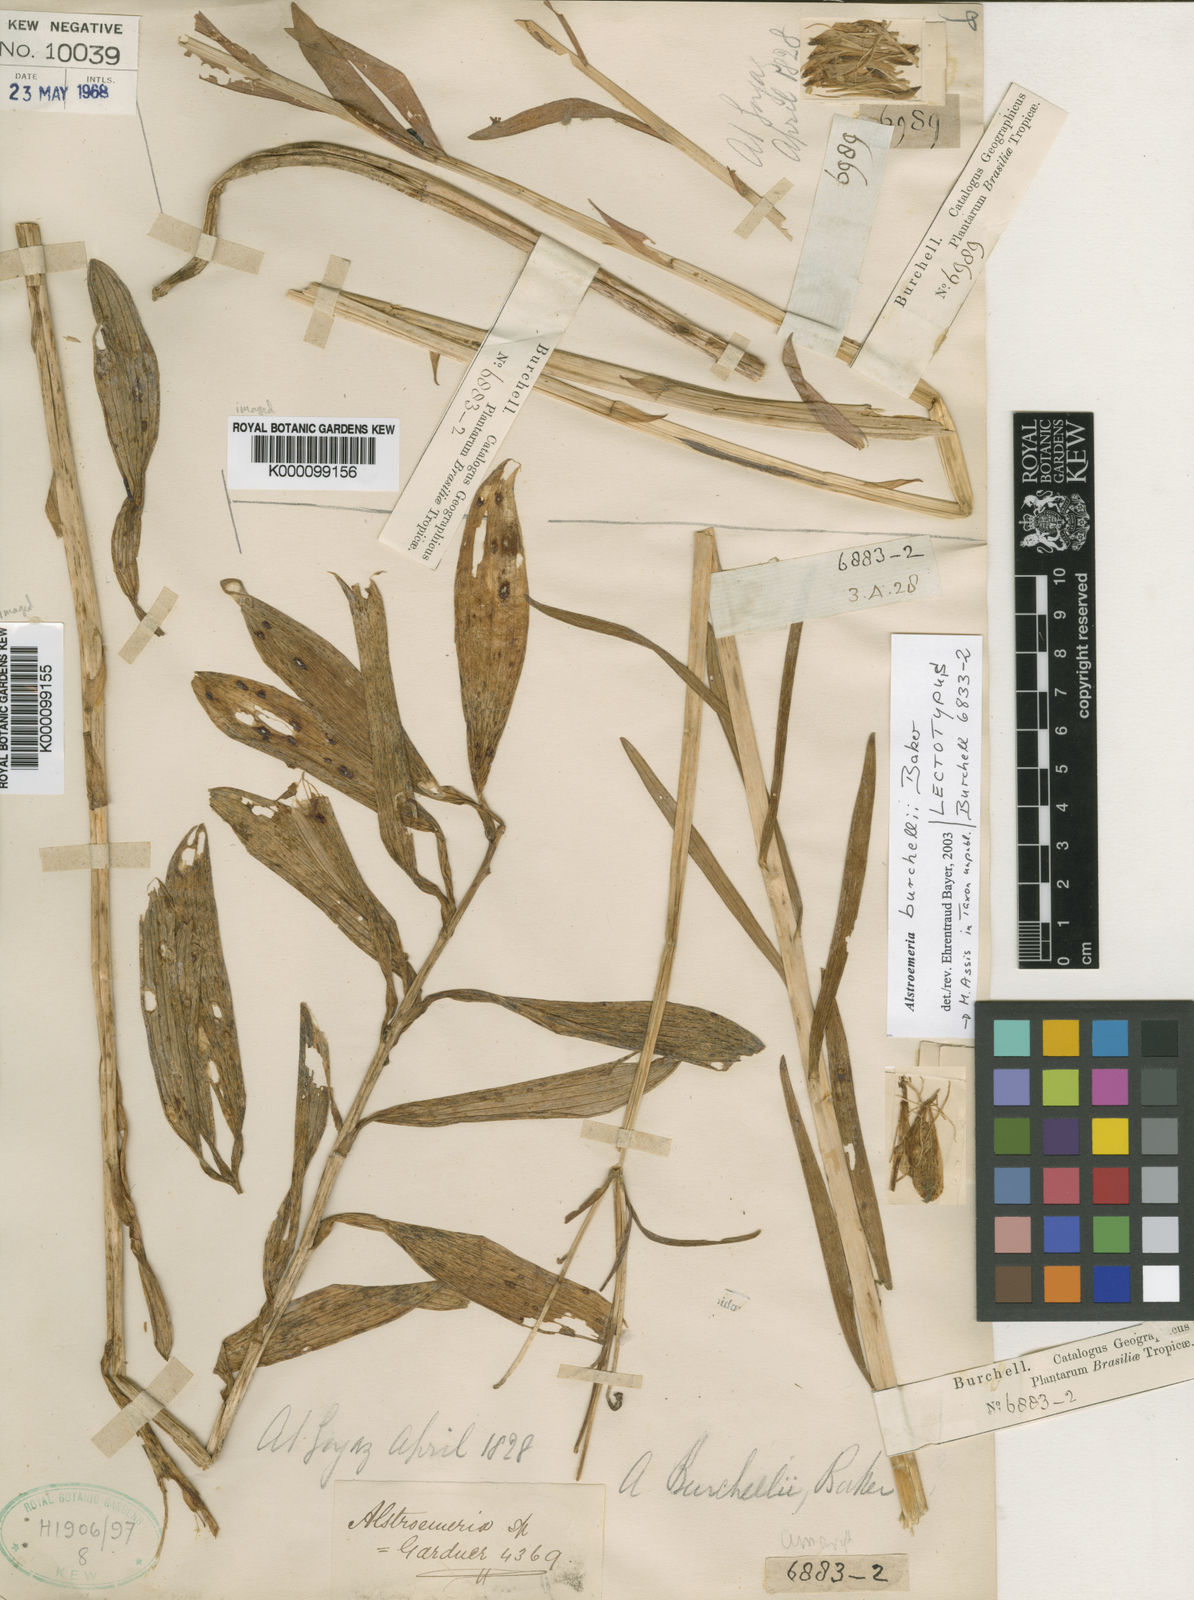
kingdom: Plantae
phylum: Tracheophyta
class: Liliopsida
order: Liliales
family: Alstroemeriaceae
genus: Alstroemeria
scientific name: Alstroemeria burchellii
